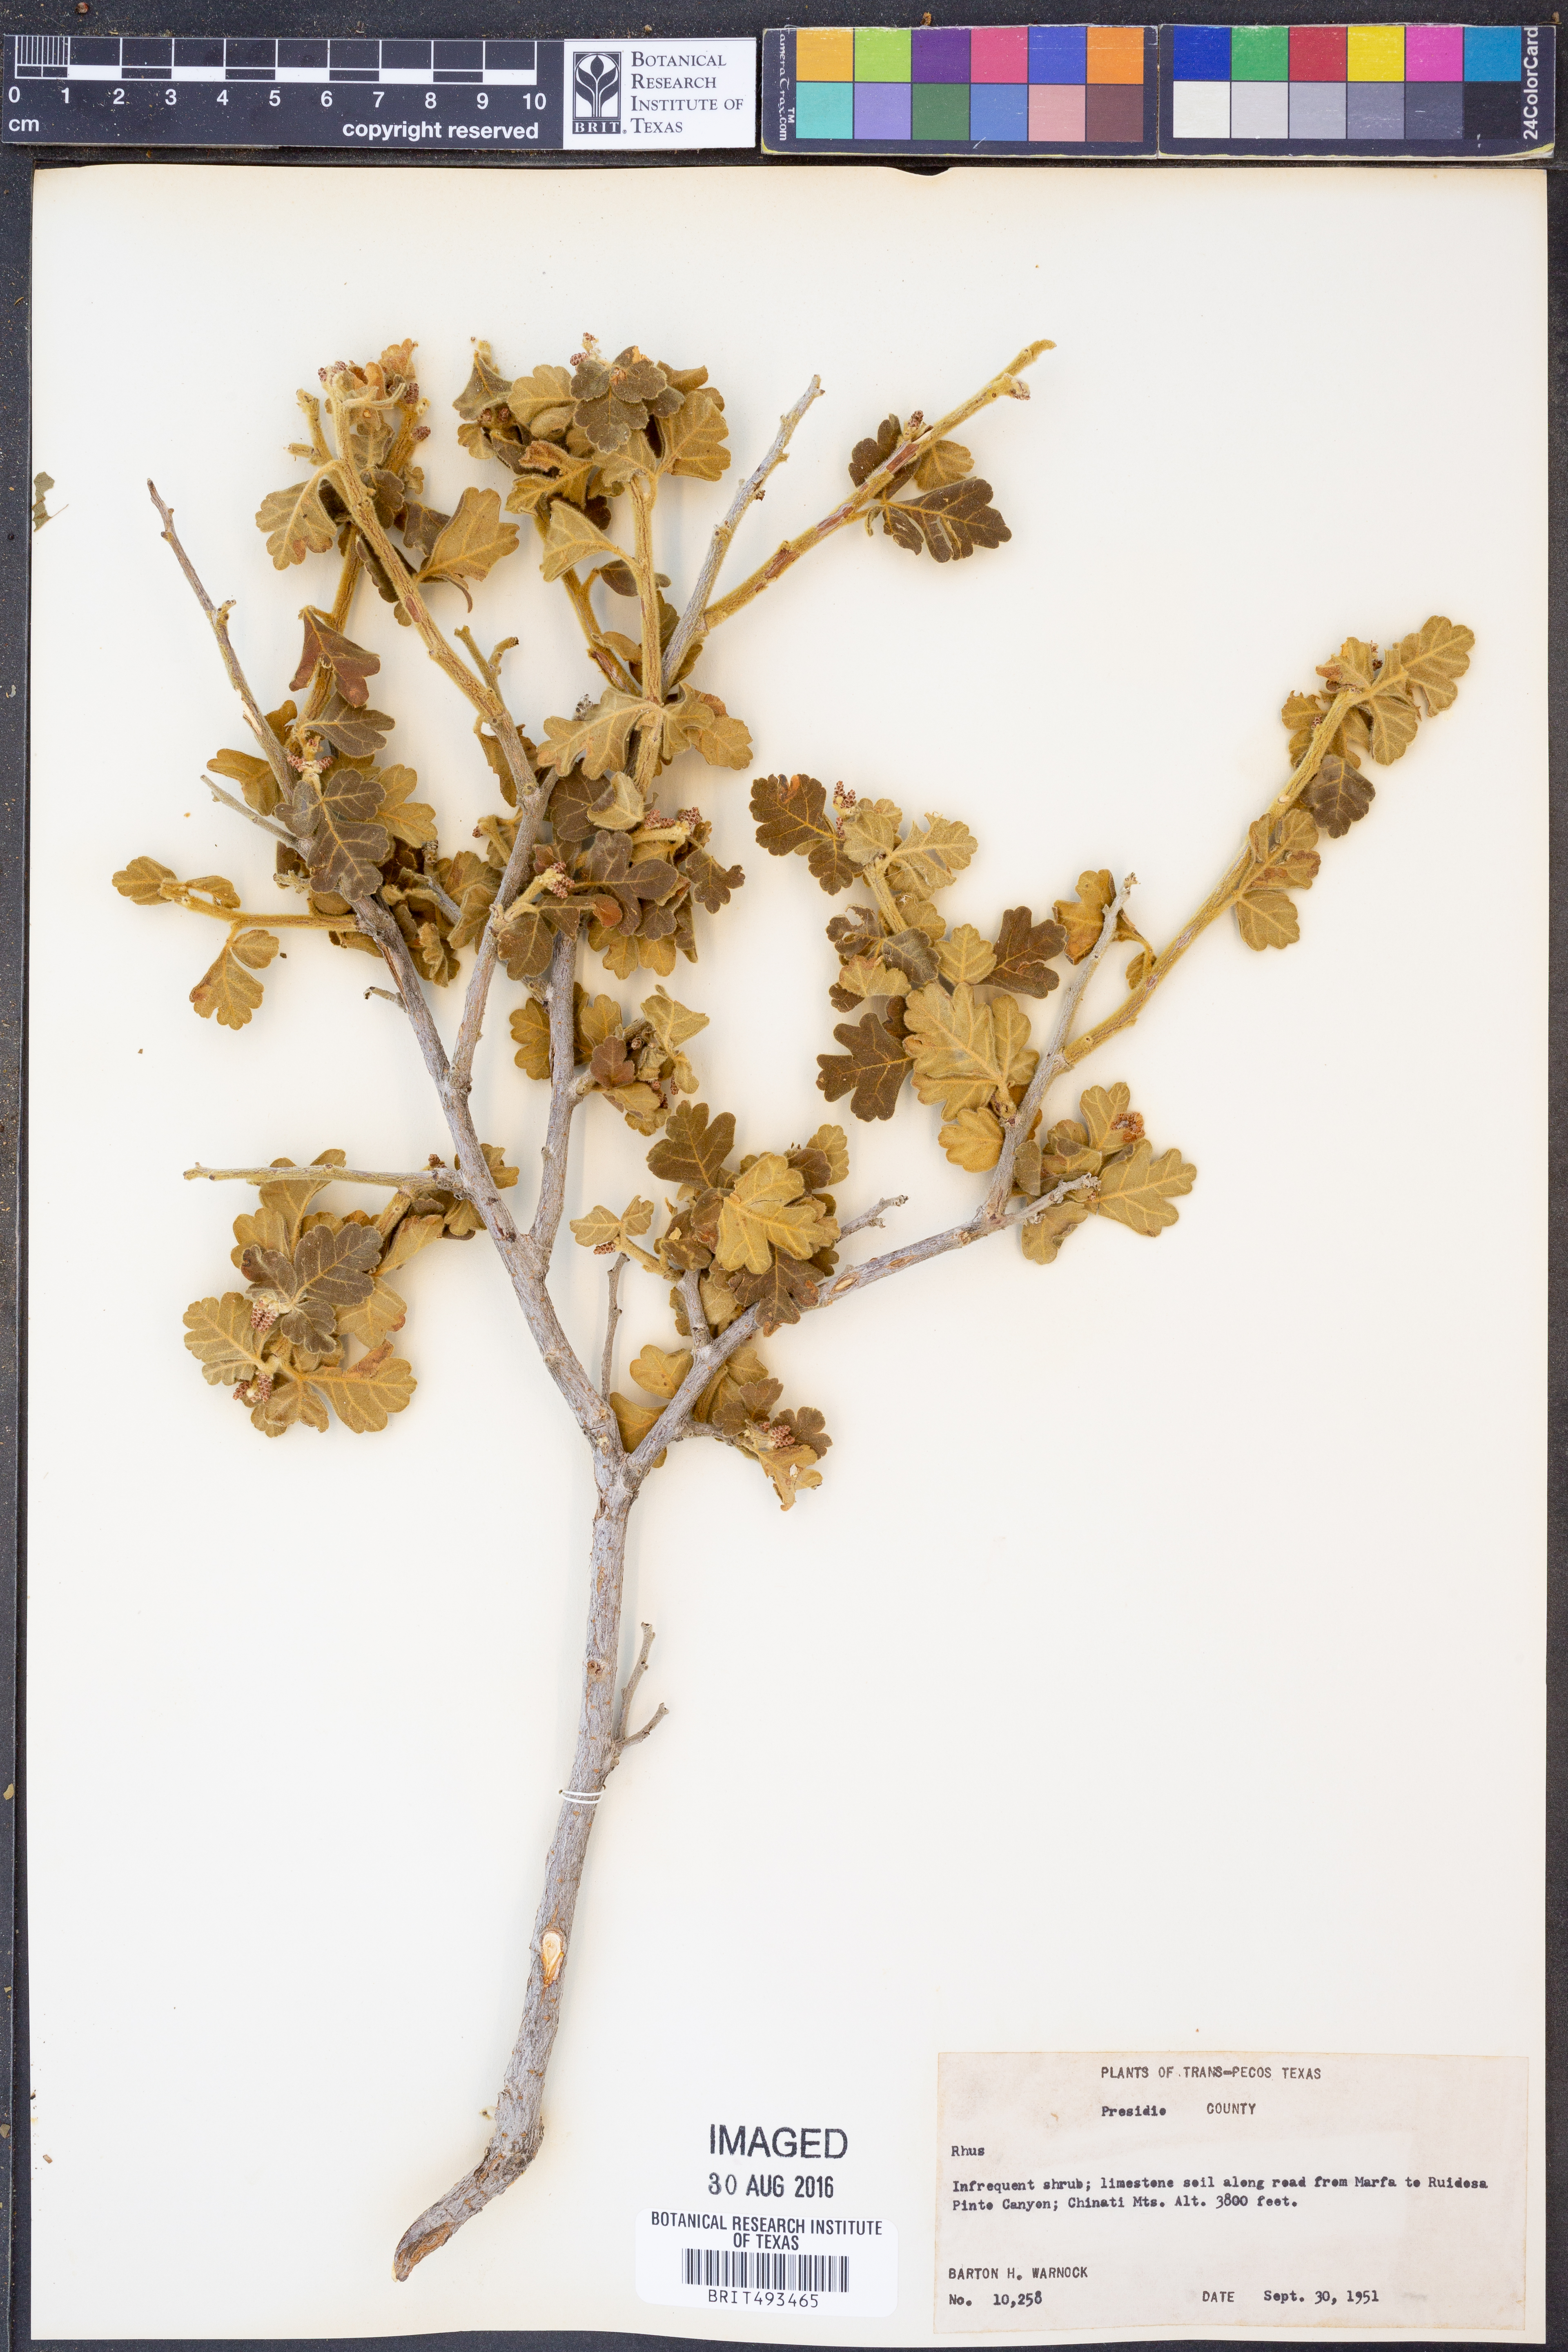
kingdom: Plantae
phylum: Tracheophyta
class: Magnoliopsida
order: Sapindales
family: Anacardiaceae
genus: Rhus
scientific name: Rhus
